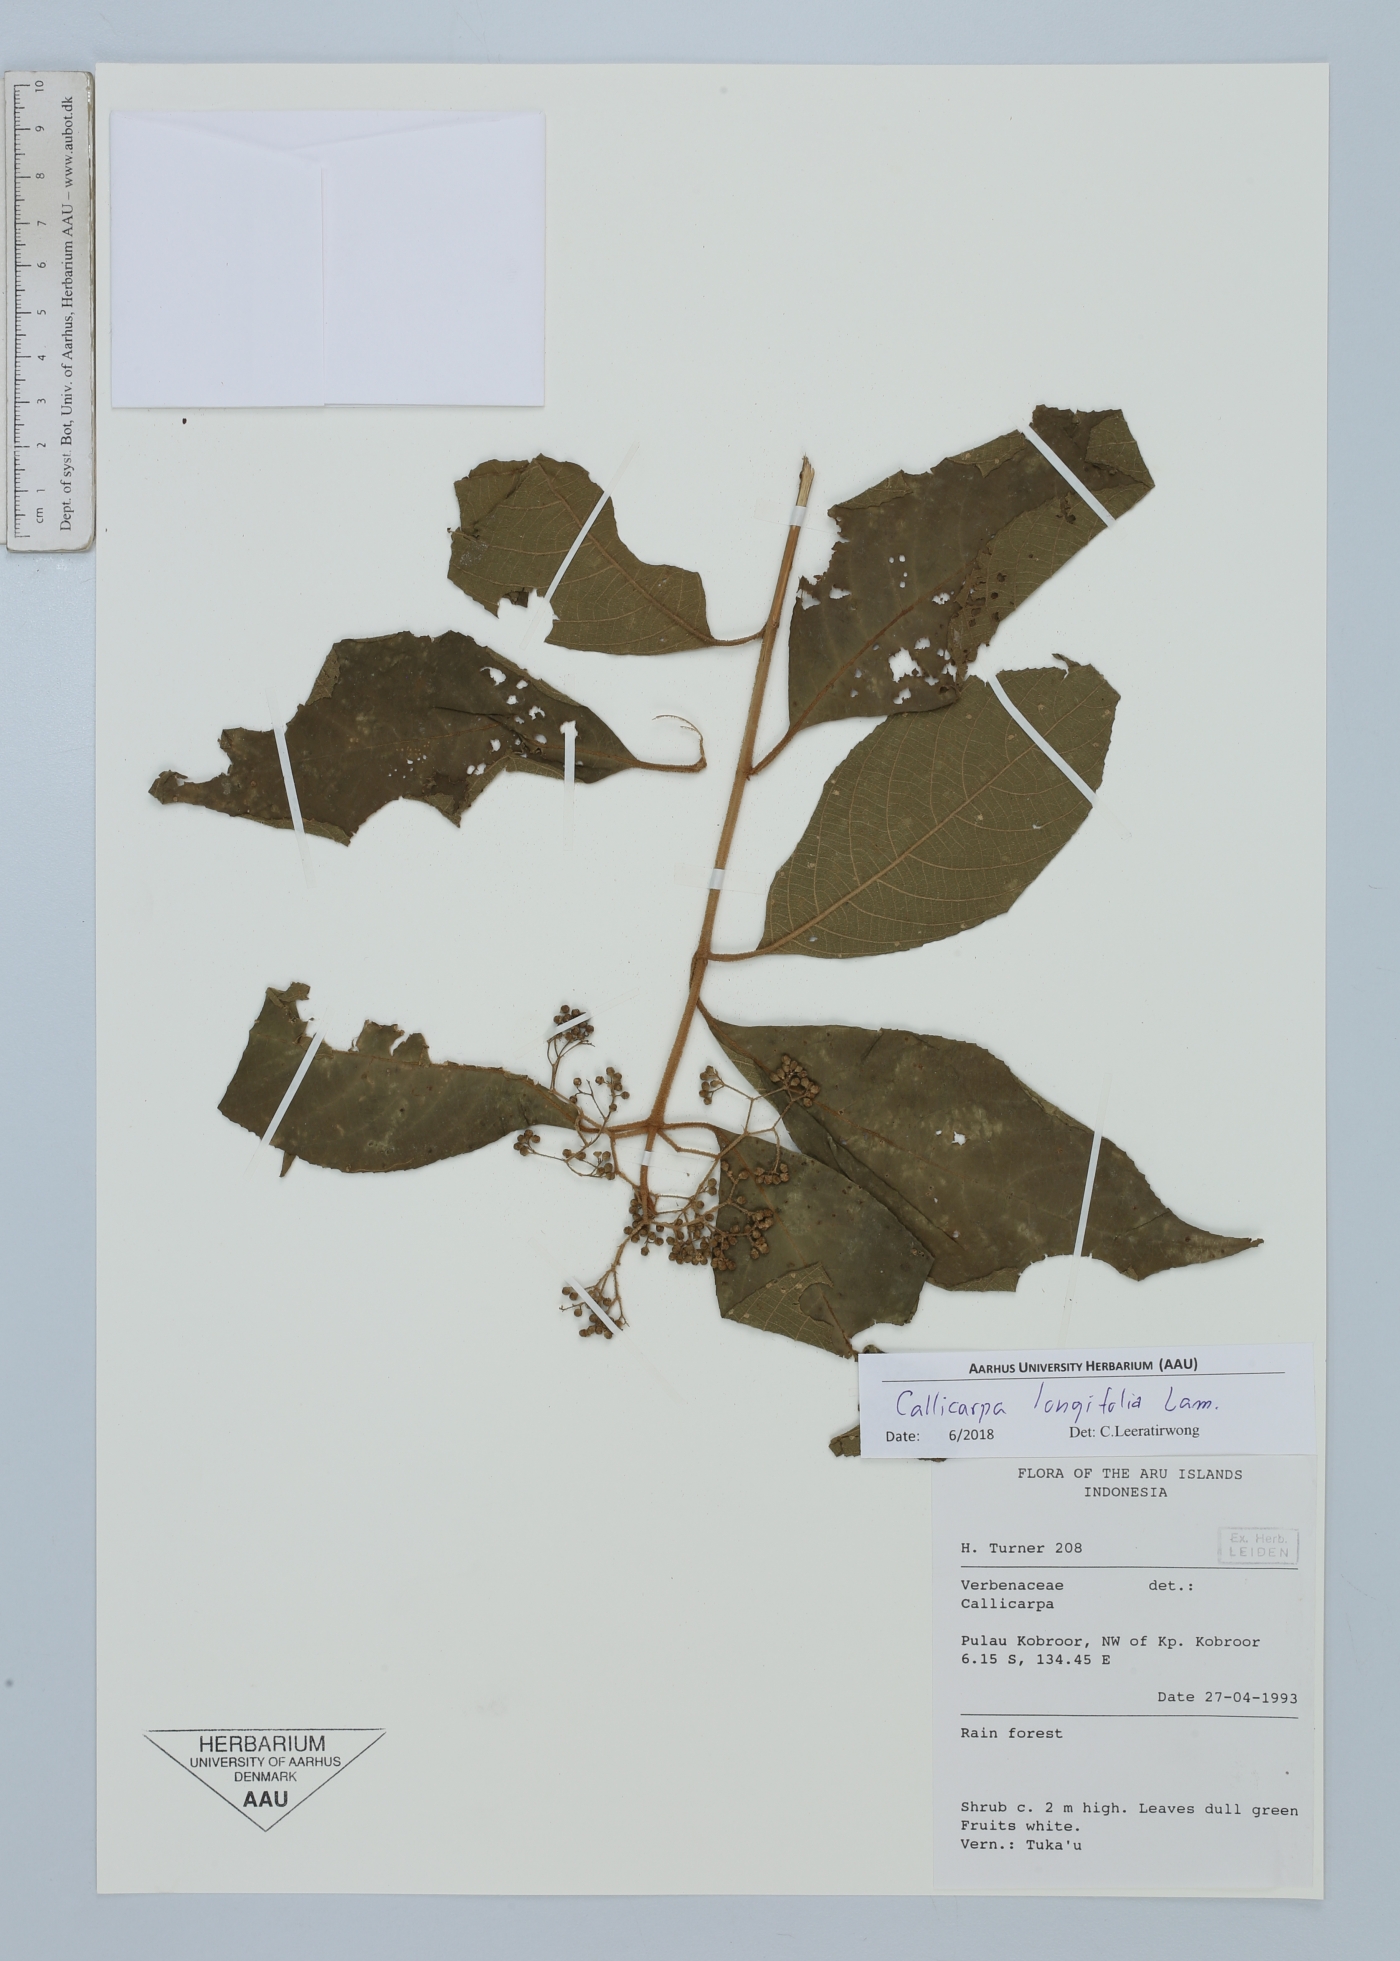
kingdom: Plantae
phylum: Tracheophyta
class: Magnoliopsida
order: Lamiales
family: Lamiaceae
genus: Callicarpa
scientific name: Callicarpa longifolia
